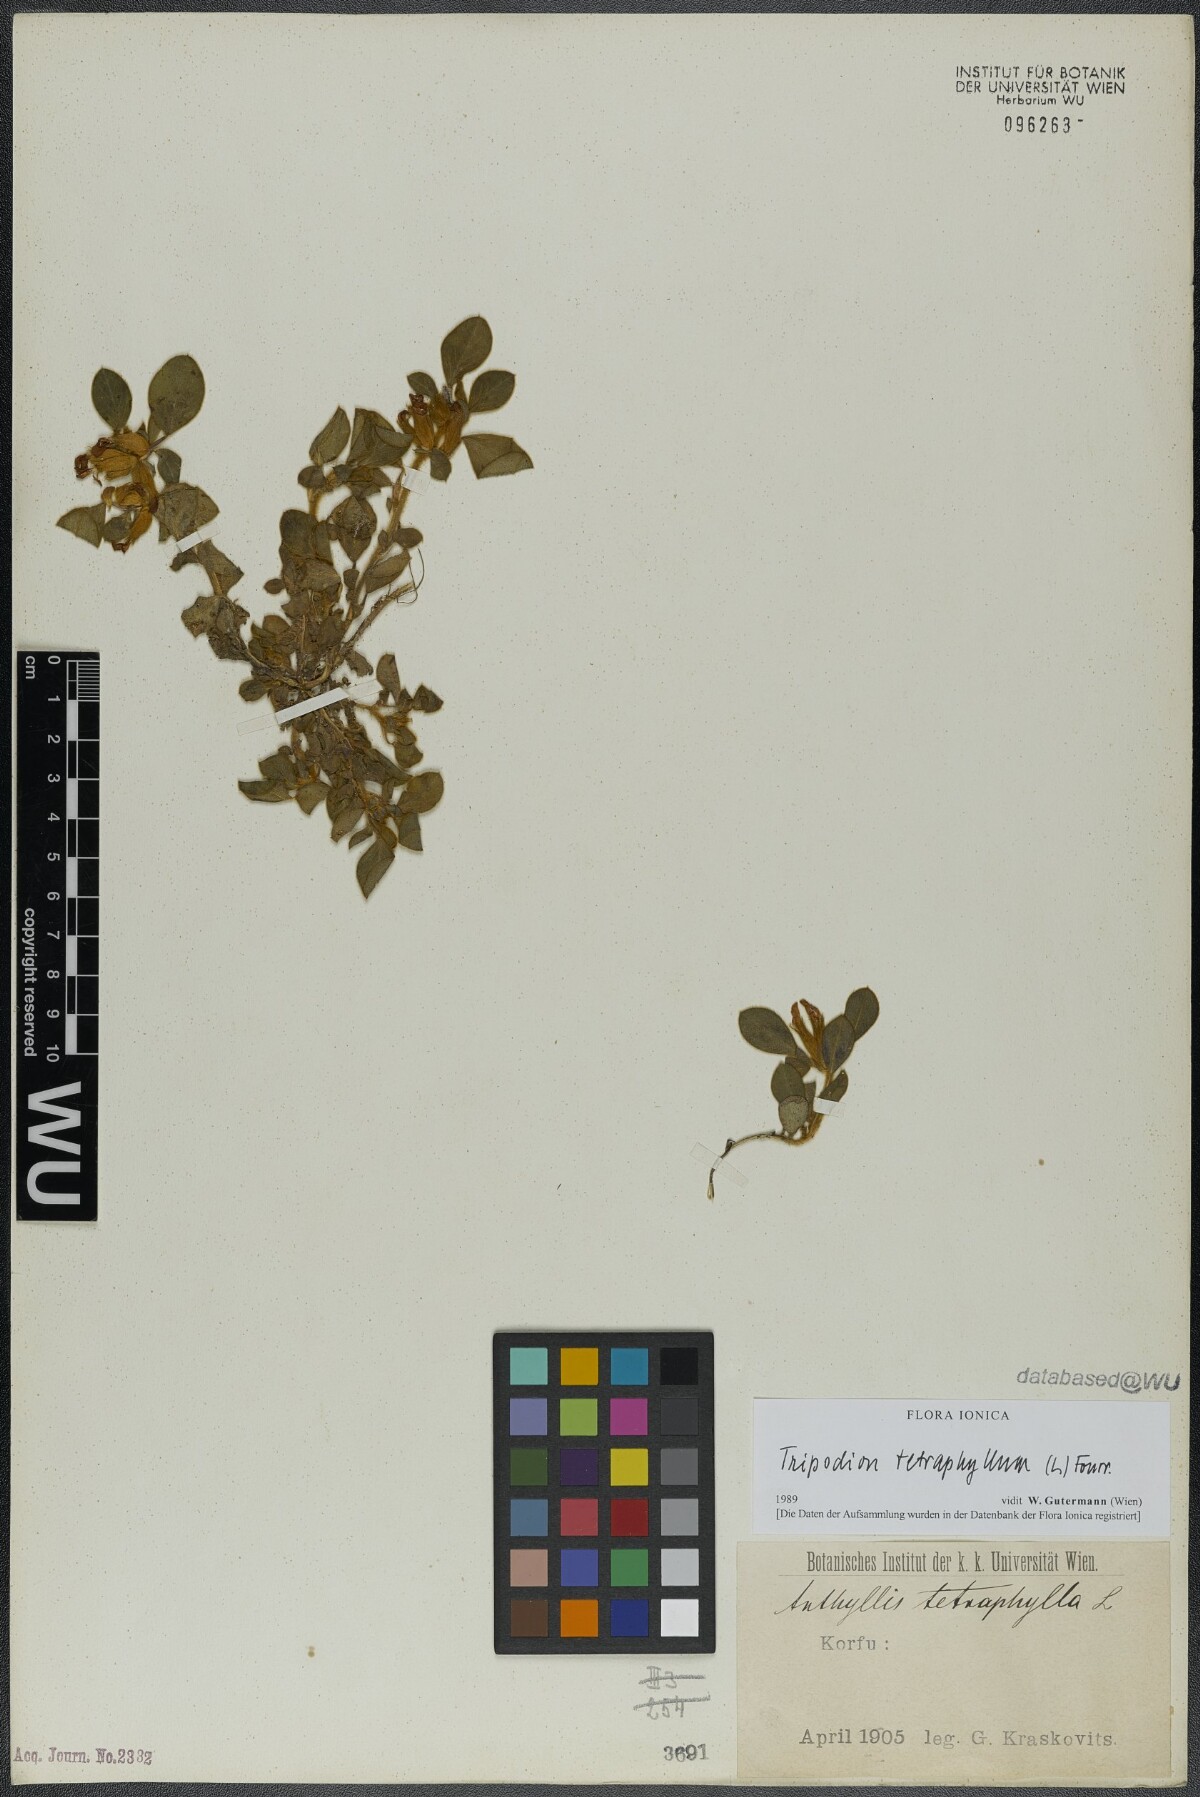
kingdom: Plantae
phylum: Tracheophyta
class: Magnoliopsida
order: Fabales
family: Fabaceae
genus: Tripodion
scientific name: Tripodion tetraphyllum
